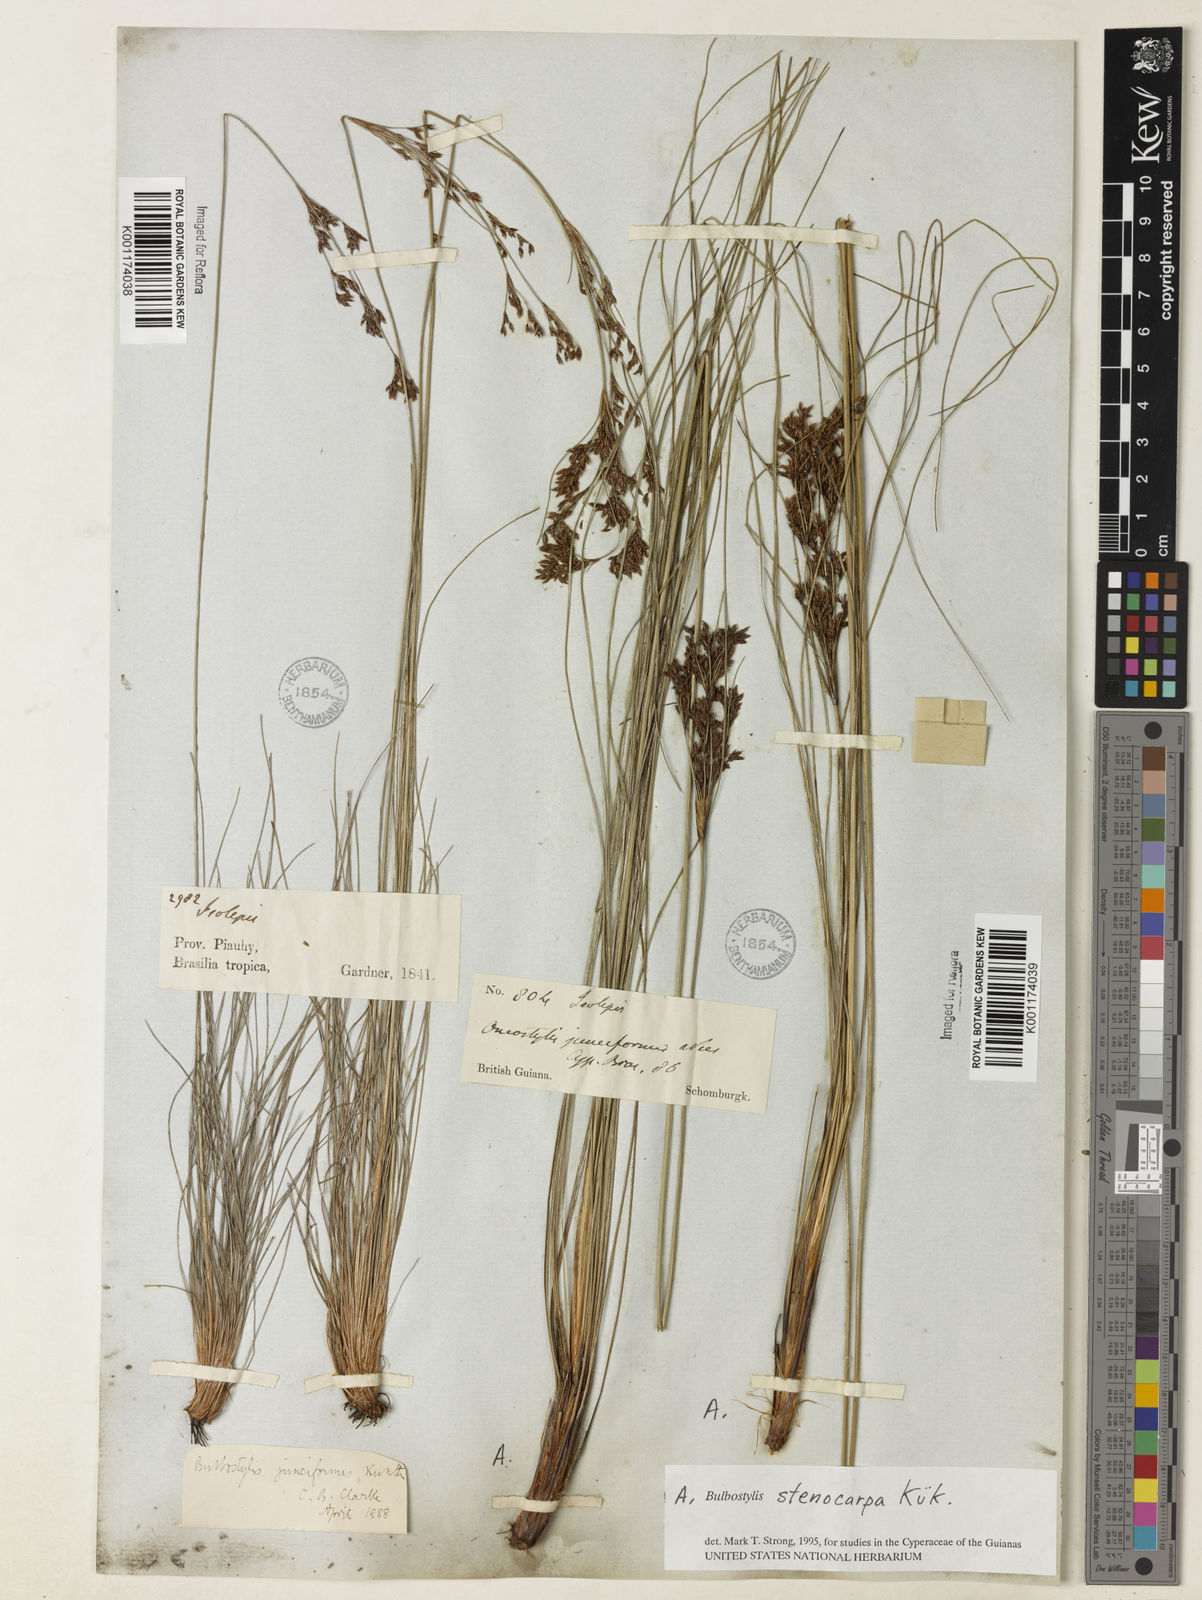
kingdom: Plantae
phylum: Tracheophyta
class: Liliopsida
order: Poales
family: Cyperaceae
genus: Bulbostylis
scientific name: Bulbostylis stenocarpa
